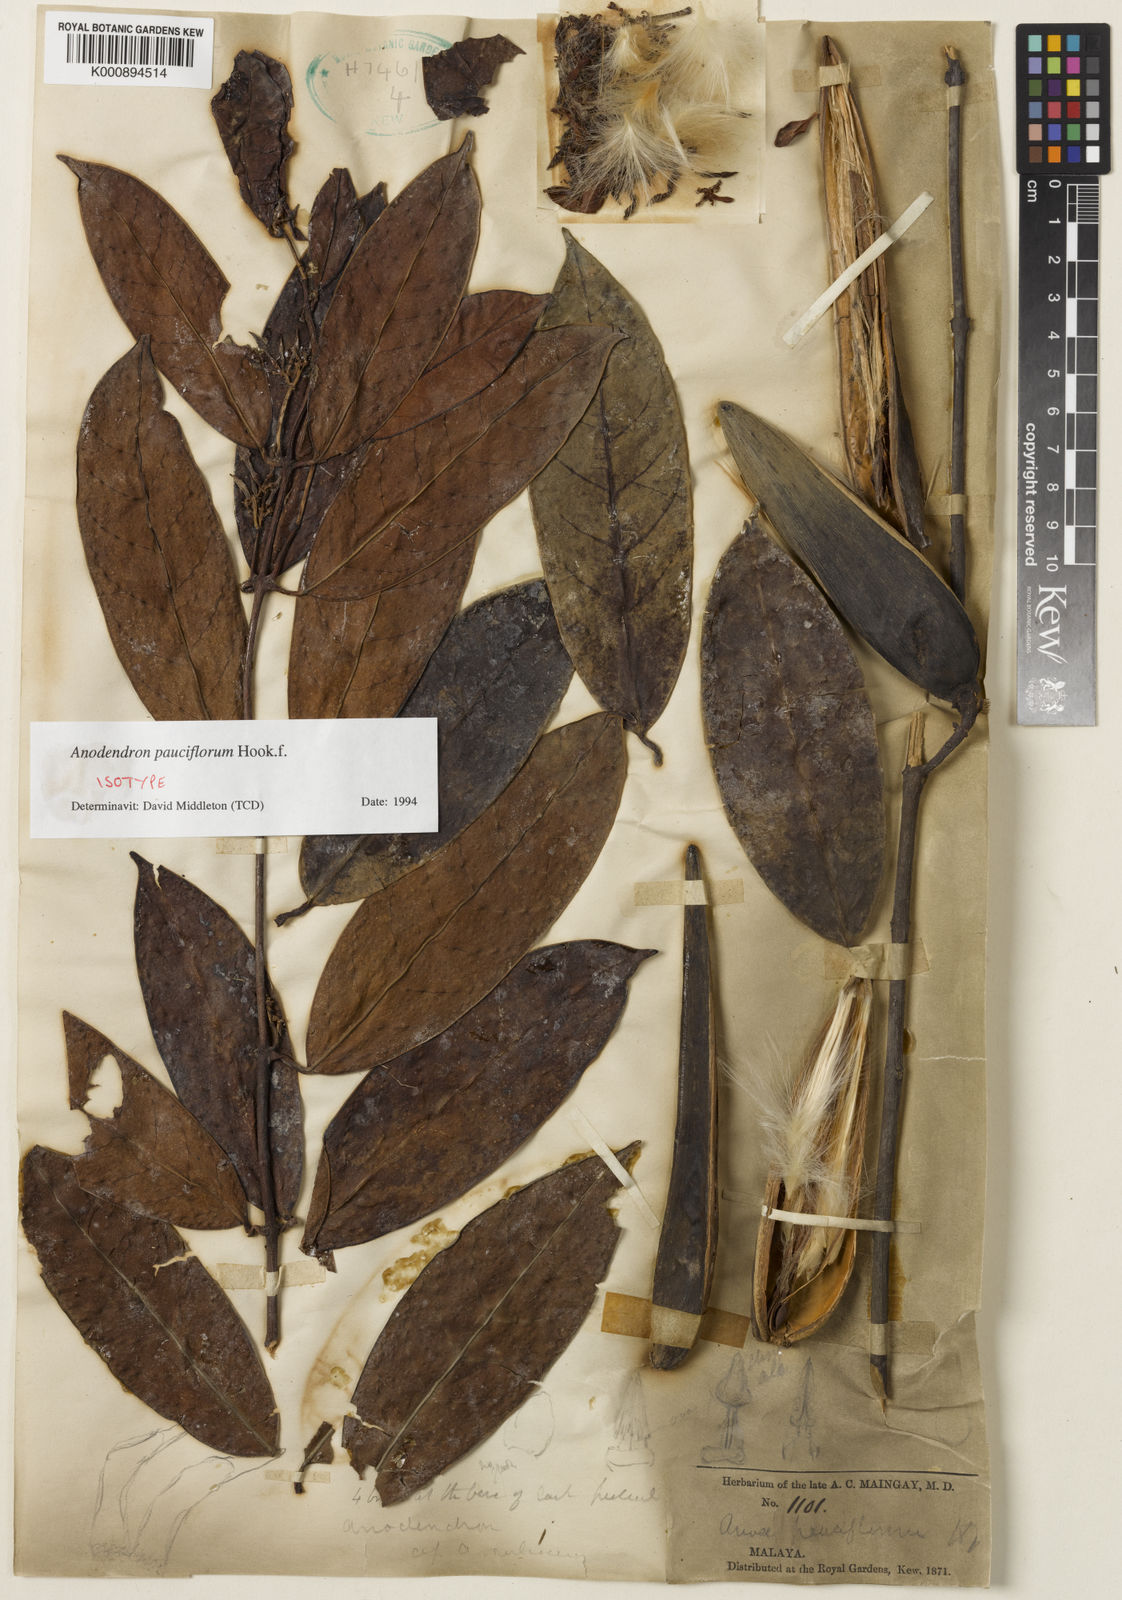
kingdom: Plantae
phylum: Tracheophyta
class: Magnoliopsida
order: Gentianales
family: Apocynaceae
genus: Anodendron
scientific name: Anodendron pauciflorum
